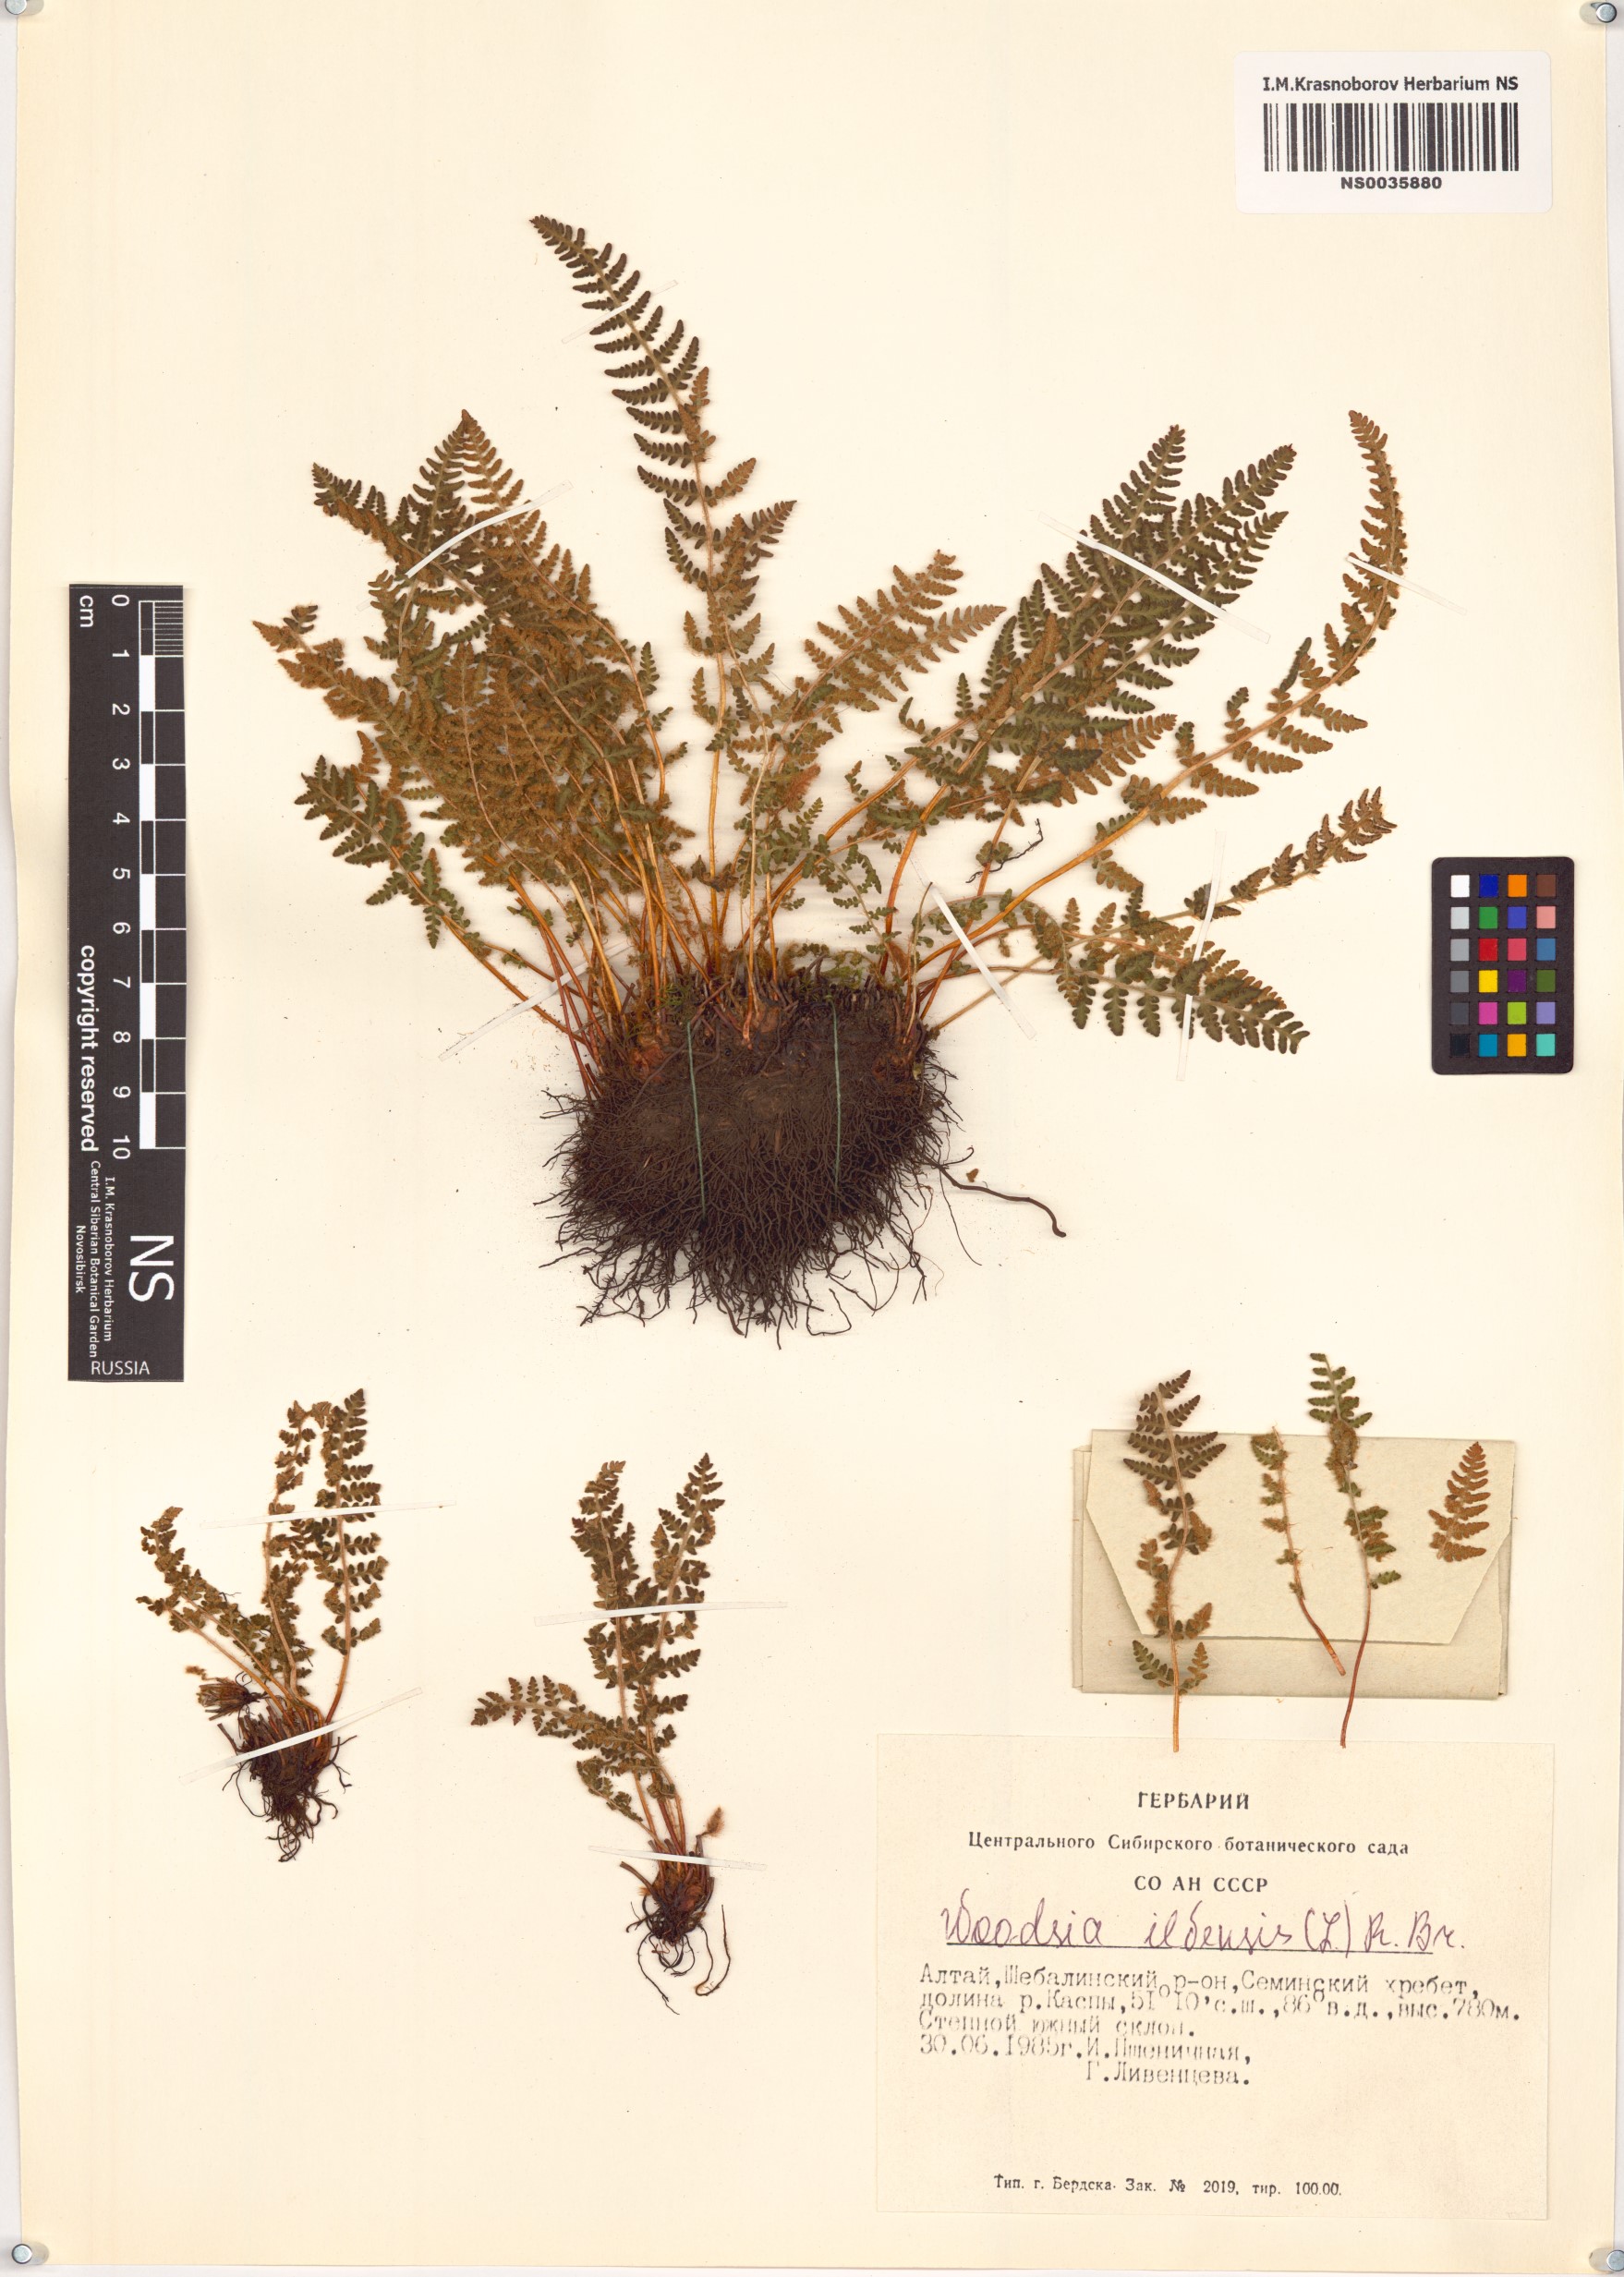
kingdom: Plantae
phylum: Tracheophyta
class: Polypodiopsida
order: Polypodiales
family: Woodsiaceae
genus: Woodsia
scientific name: Woodsia ilvensis
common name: Fragrant woodsia
